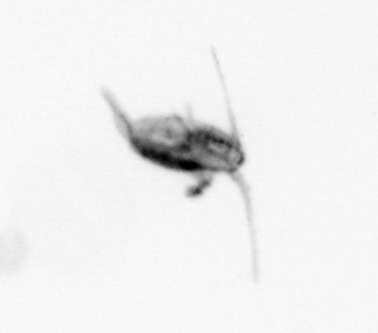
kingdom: Animalia
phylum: Arthropoda
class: Copepoda
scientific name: Copepoda
